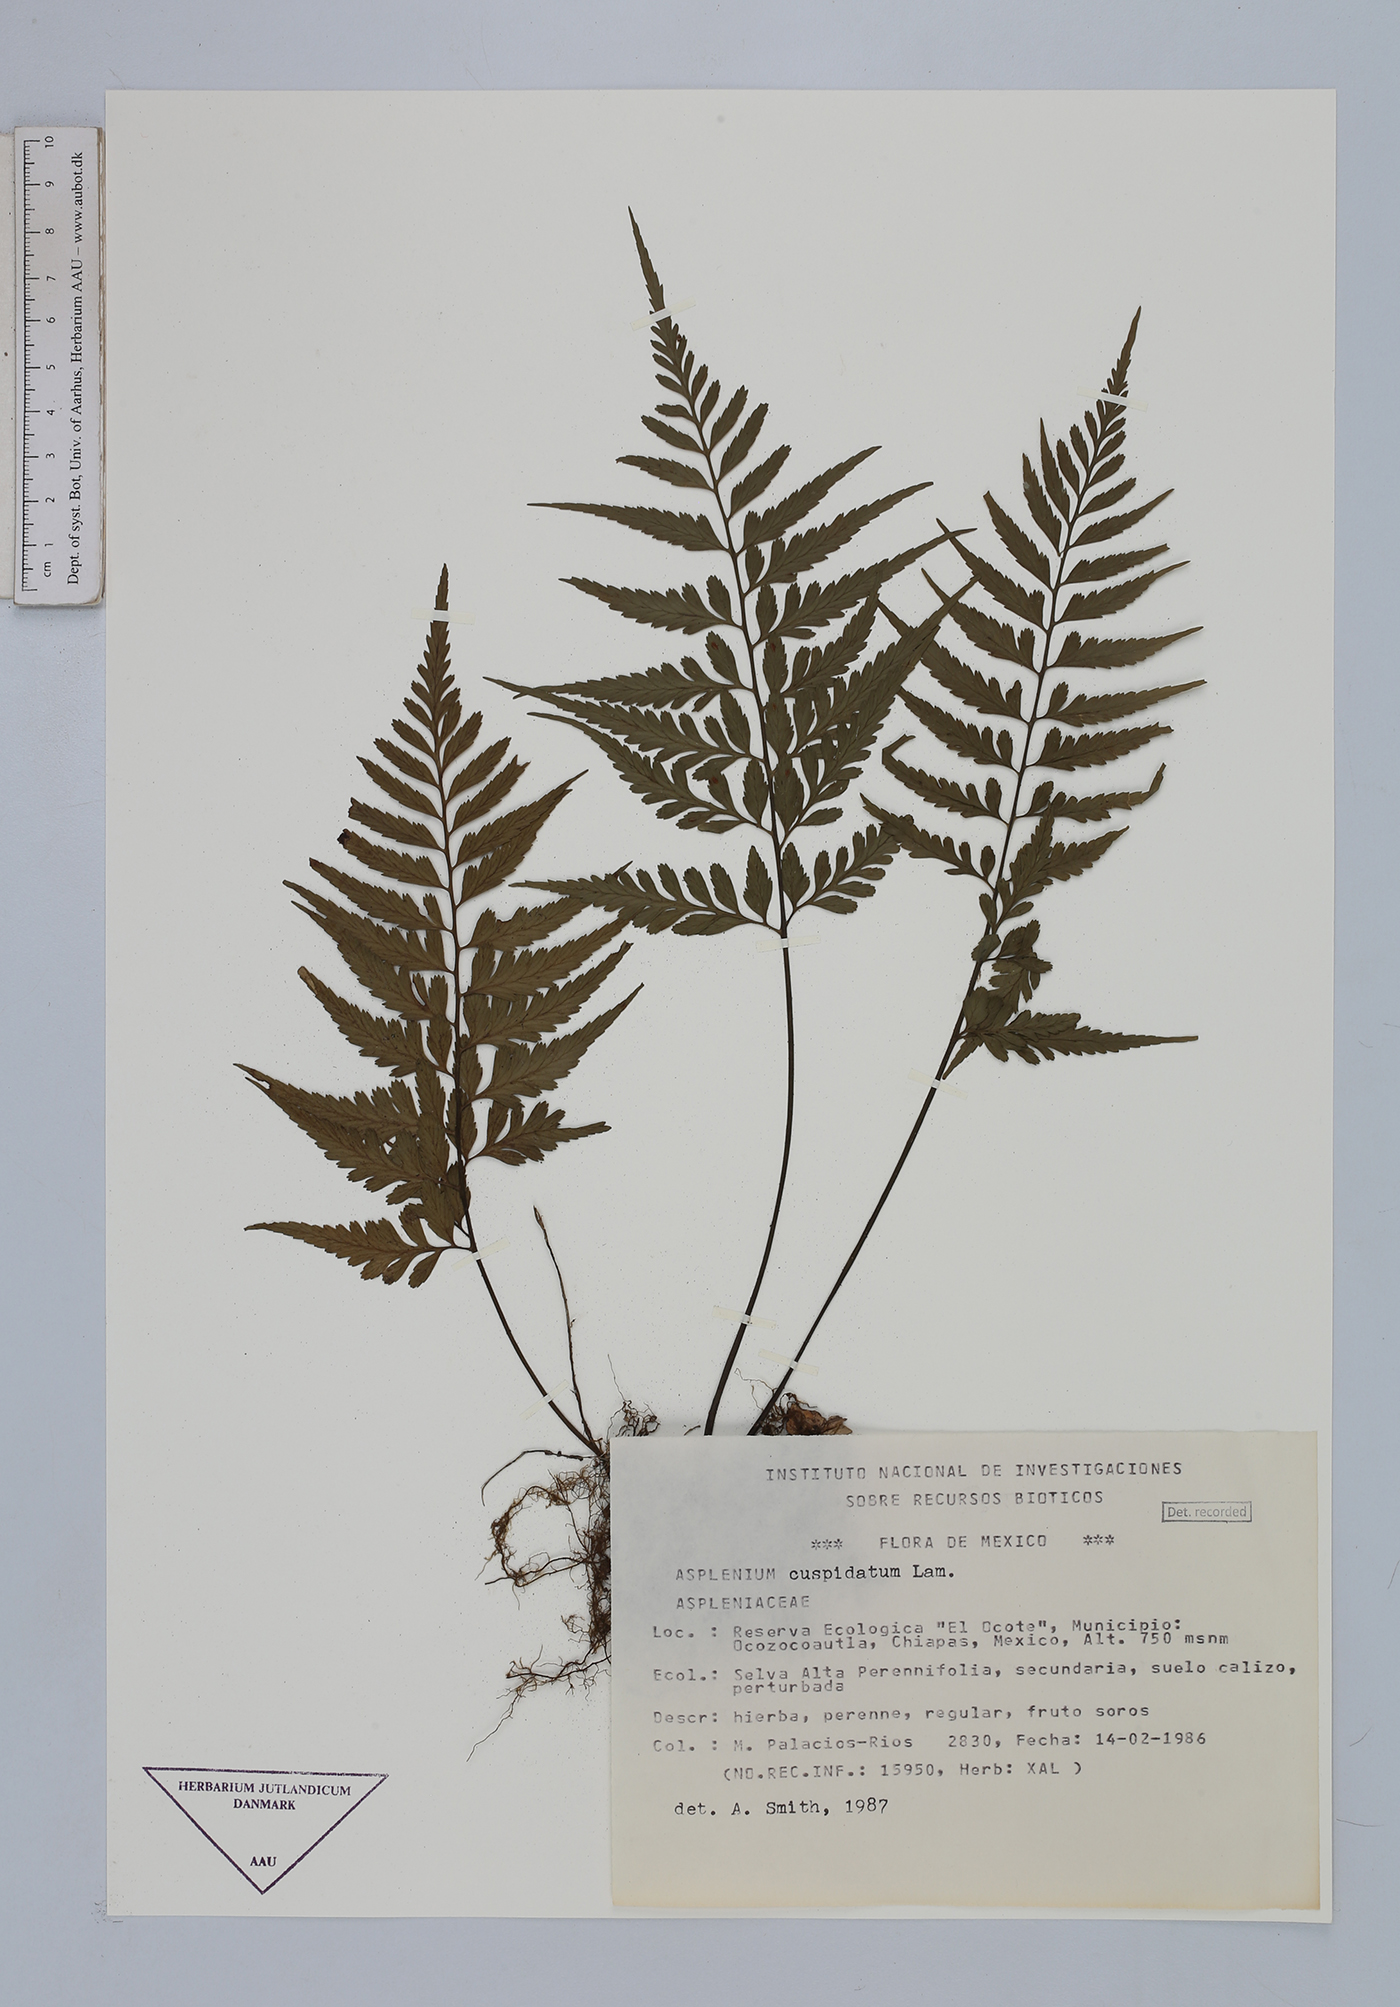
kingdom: Plantae
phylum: Tracheophyta
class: Polypodiopsida
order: Polypodiales
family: Aspleniaceae
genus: Asplenium
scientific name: Asplenium cuspidatum
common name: Eared spleenwort
